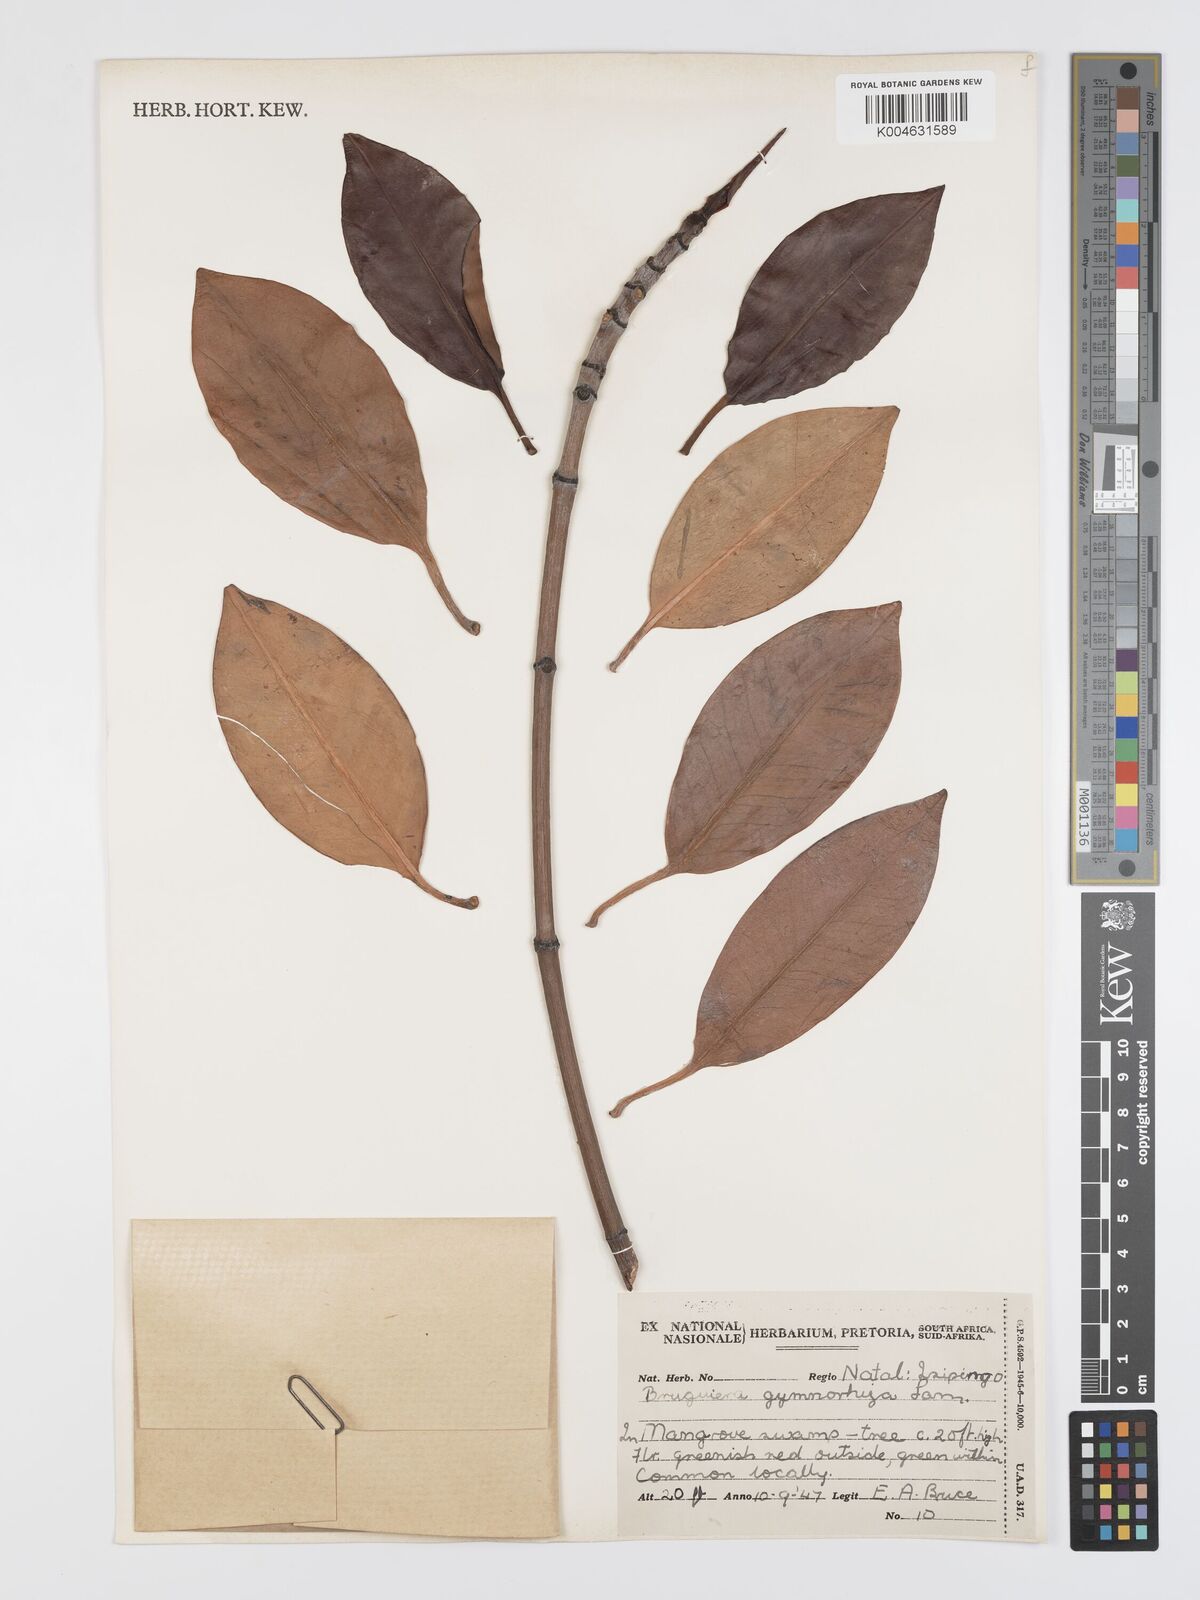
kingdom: Plantae
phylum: Tracheophyta
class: Magnoliopsida
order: Malpighiales
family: Rhizophoraceae
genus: Bruguiera
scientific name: Bruguiera gymnorhiza
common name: Oriental mangrove
